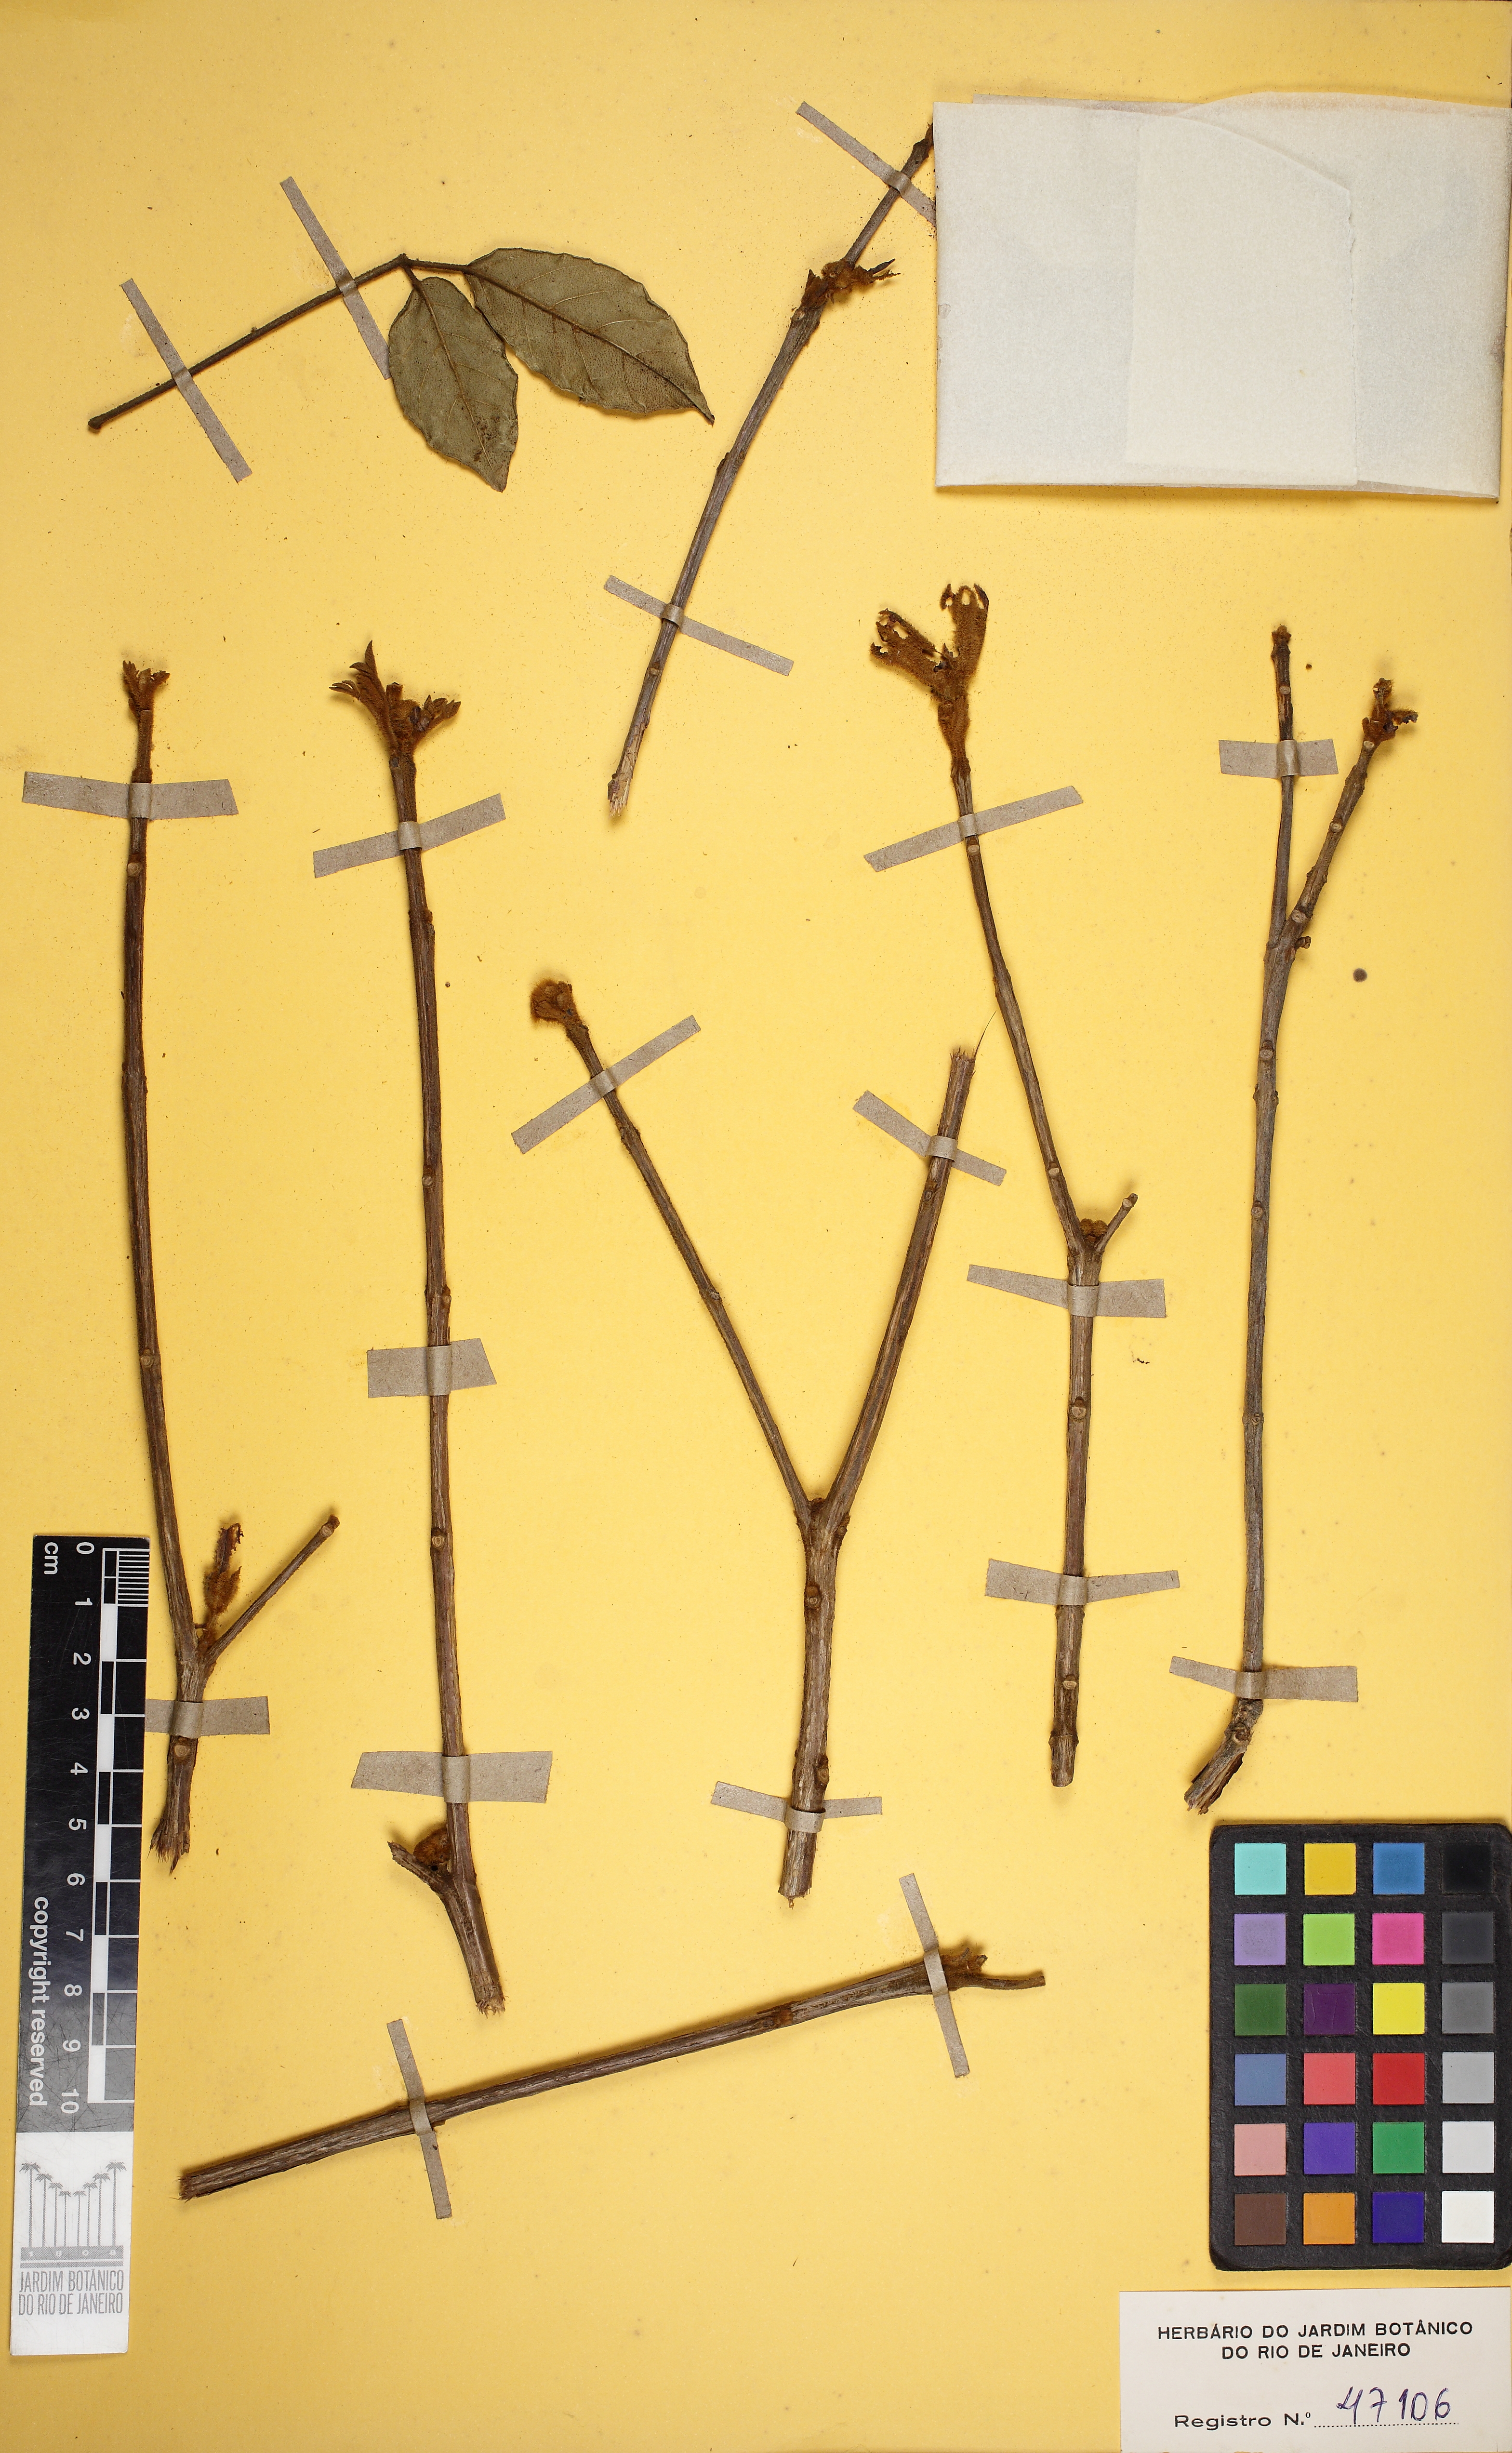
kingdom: Plantae
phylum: Tracheophyta
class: Magnoliopsida
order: Lamiales
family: Bignoniaceae
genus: Handroanthus
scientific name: Handroanthus chrysotrichus
